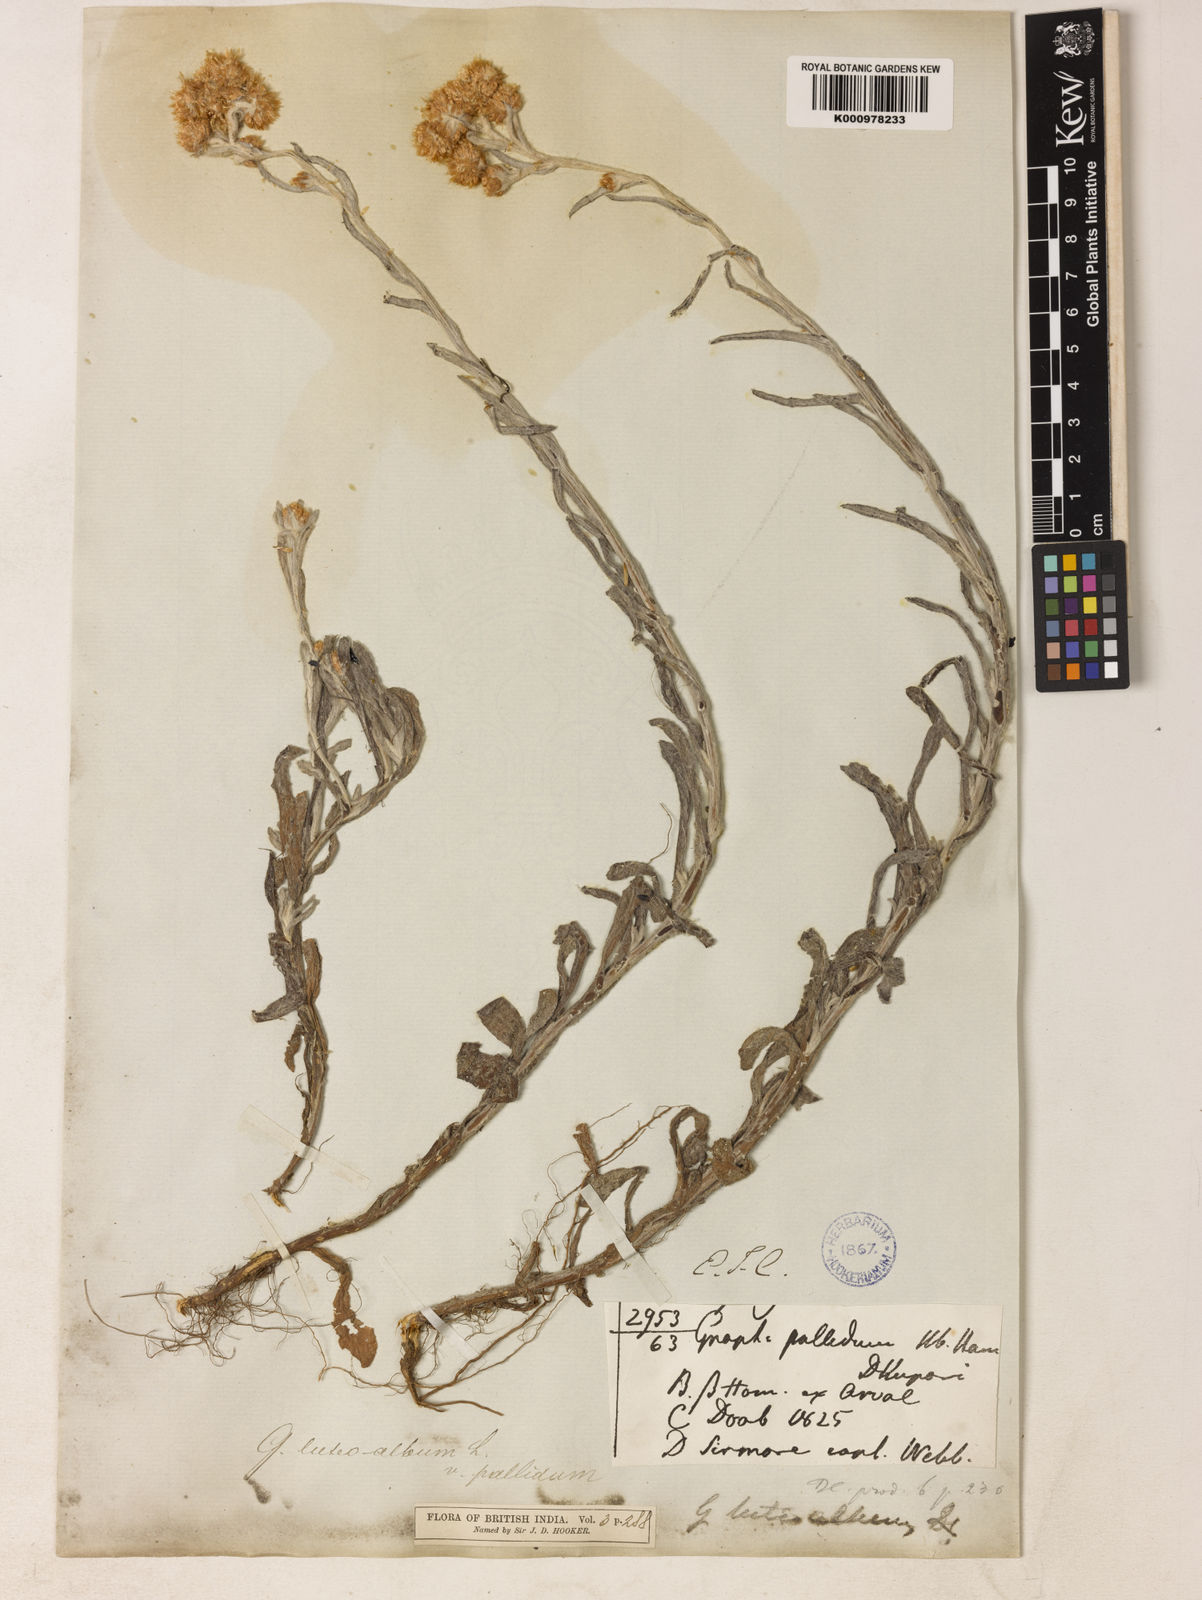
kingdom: Plantae
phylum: Tracheophyta
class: Magnoliopsida
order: Asterales
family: Asteraceae
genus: Helichrysum
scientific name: Helichrysum luteoalbum
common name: Daisy
